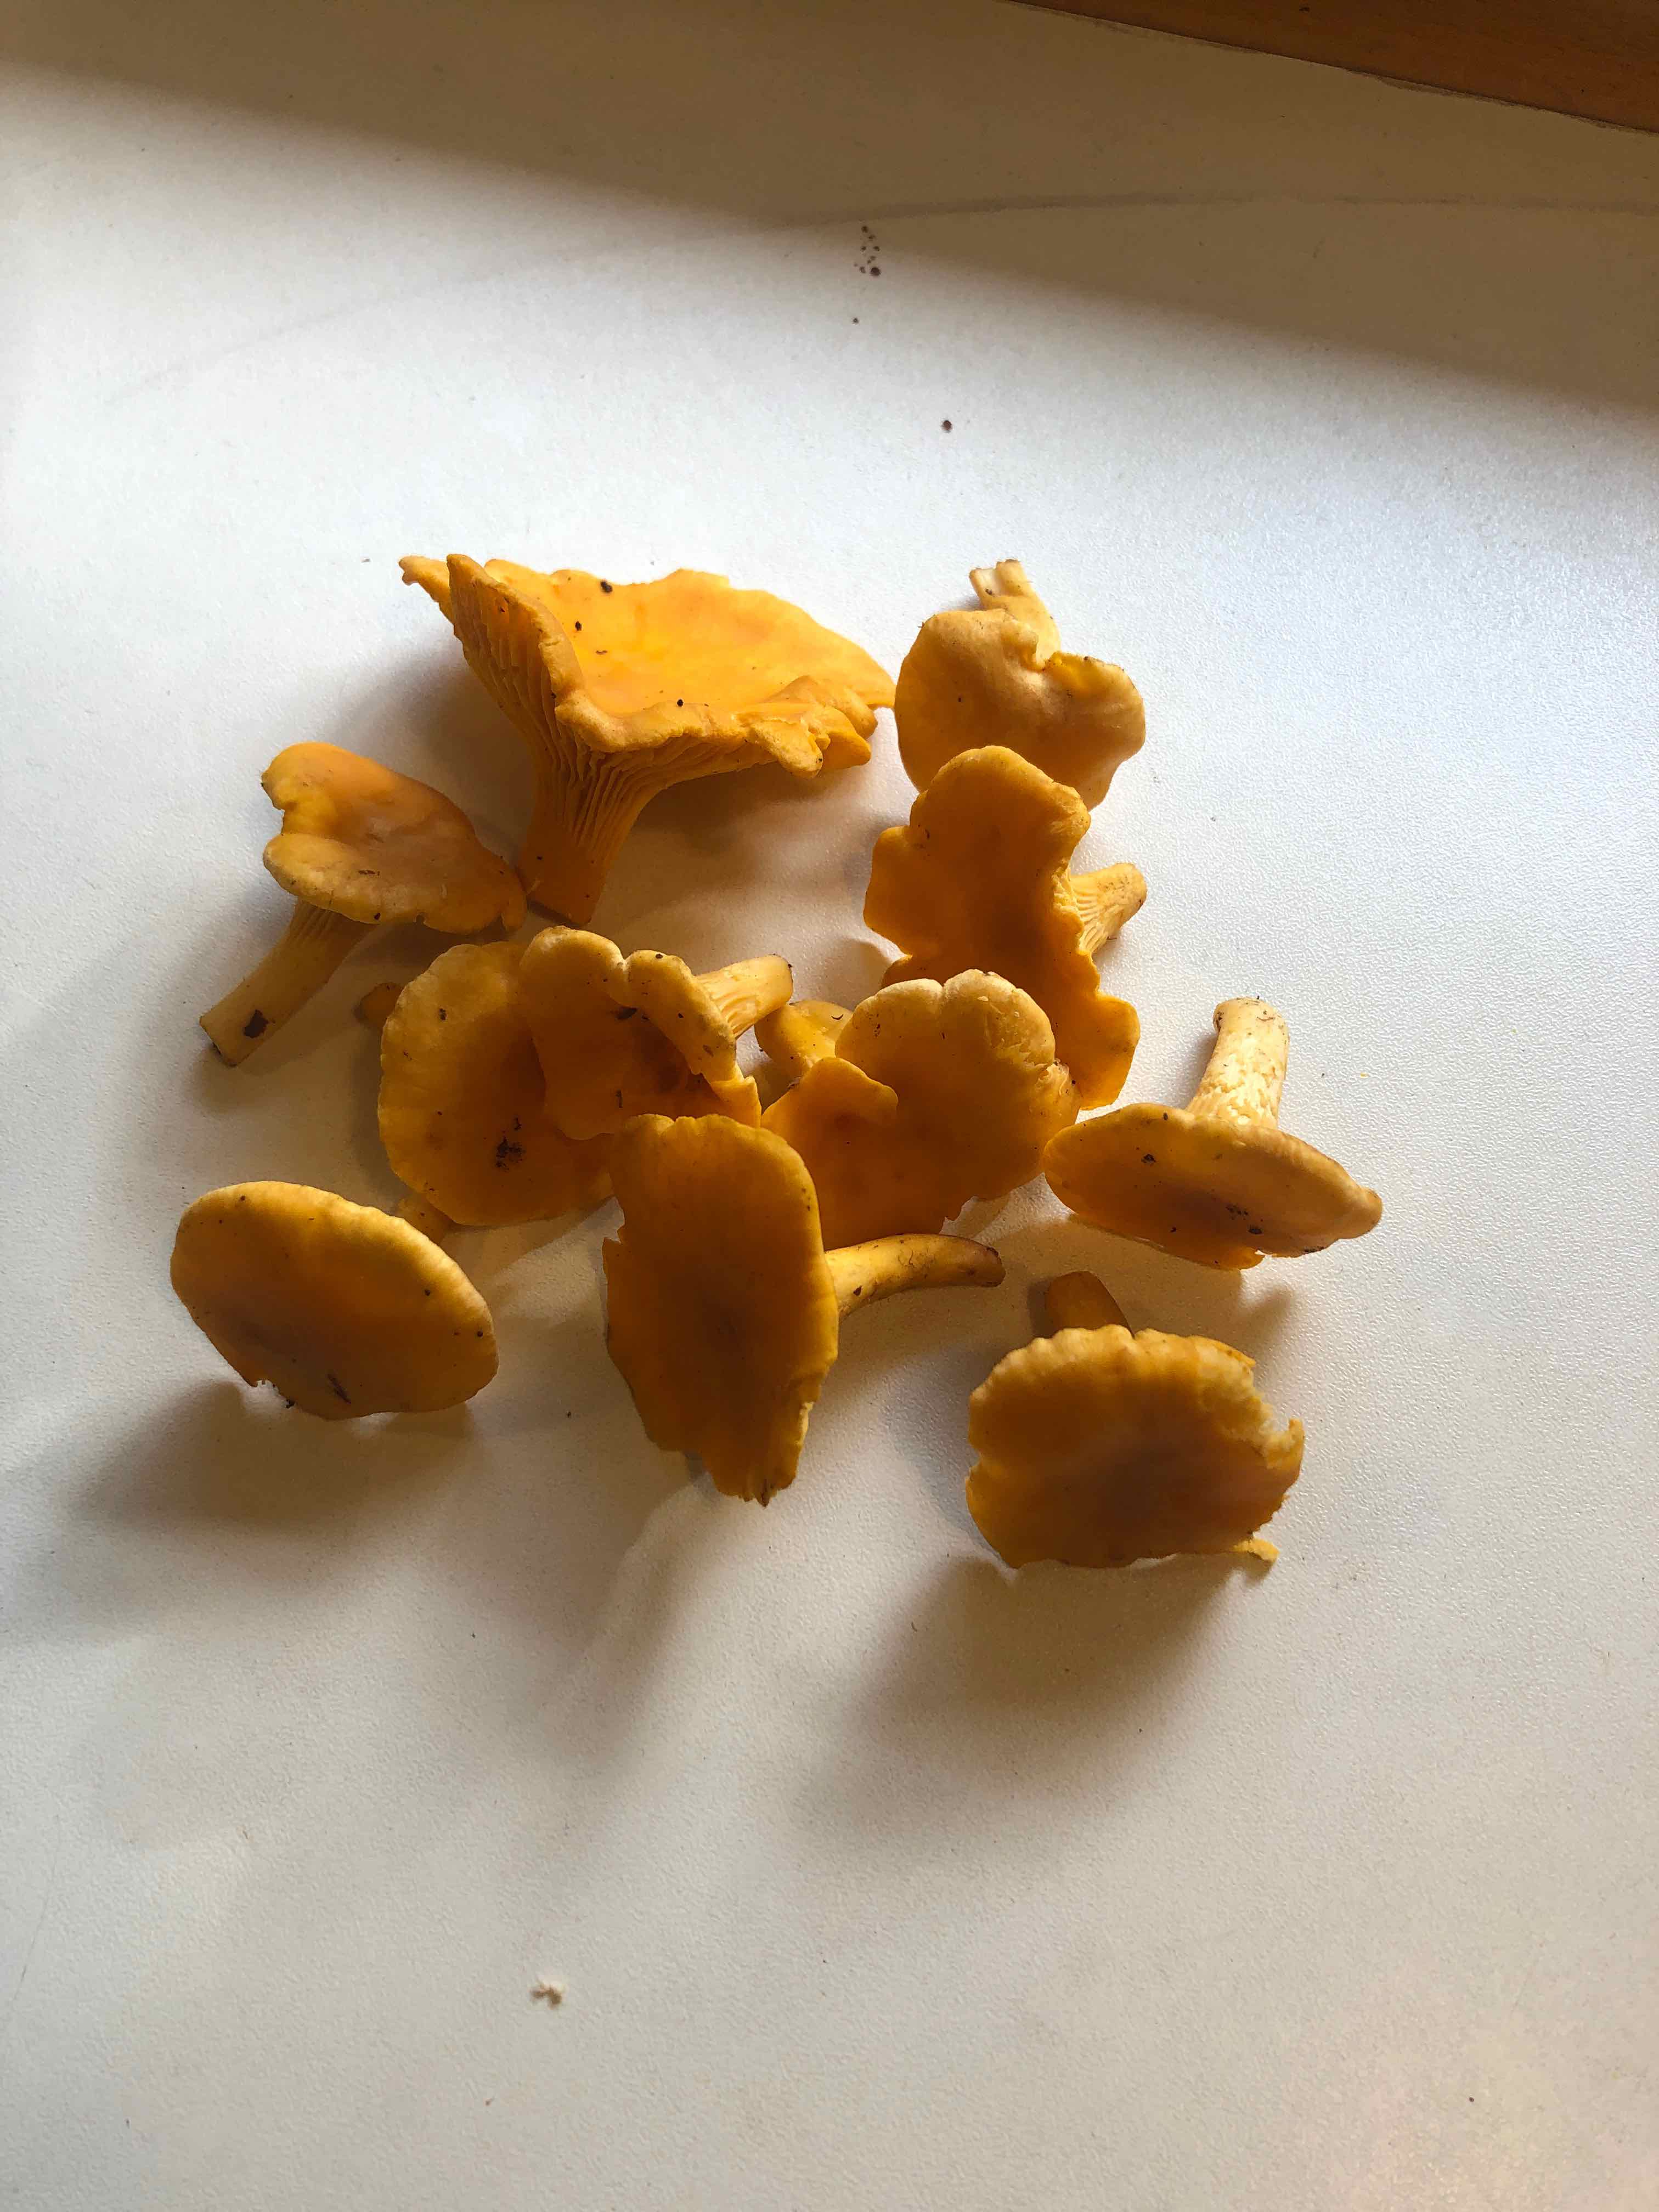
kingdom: Fungi
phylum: Basidiomycota
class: Agaricomycetes
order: Cantharellales
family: Hydnaceae
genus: Cantharellus
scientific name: Cantharellus cibarius
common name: almindelig kantarel
